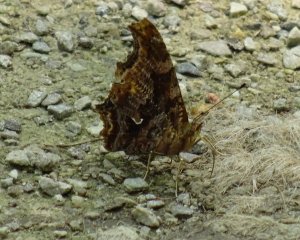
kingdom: Animalia
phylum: Arthropoda
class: Insecta
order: Lepidoptera
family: Nymphalidae
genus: Polygonia
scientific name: Polygonia comma
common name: Eastern Comma
